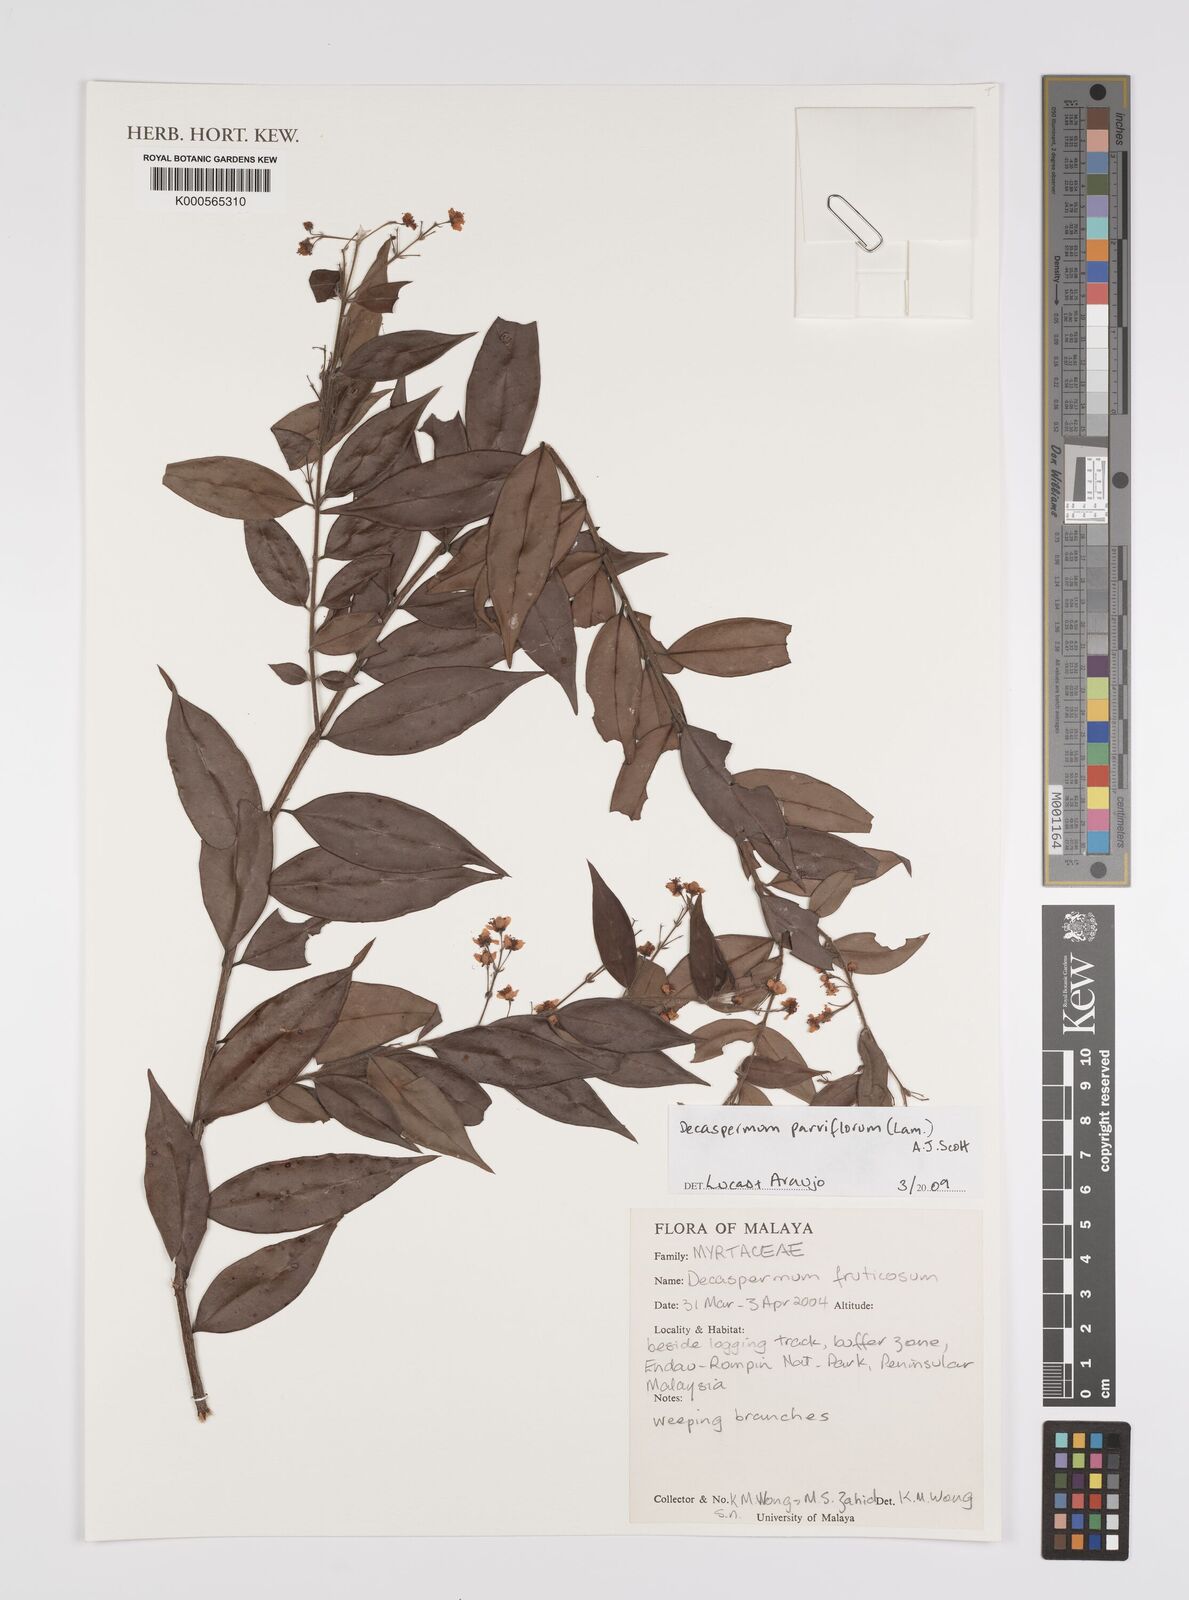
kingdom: Plantae
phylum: Tracheophyta
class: Magnoliopsida
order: Myrtales
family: Myrtaceae
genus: Decaspermum
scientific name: Decaspermum parviflorum
